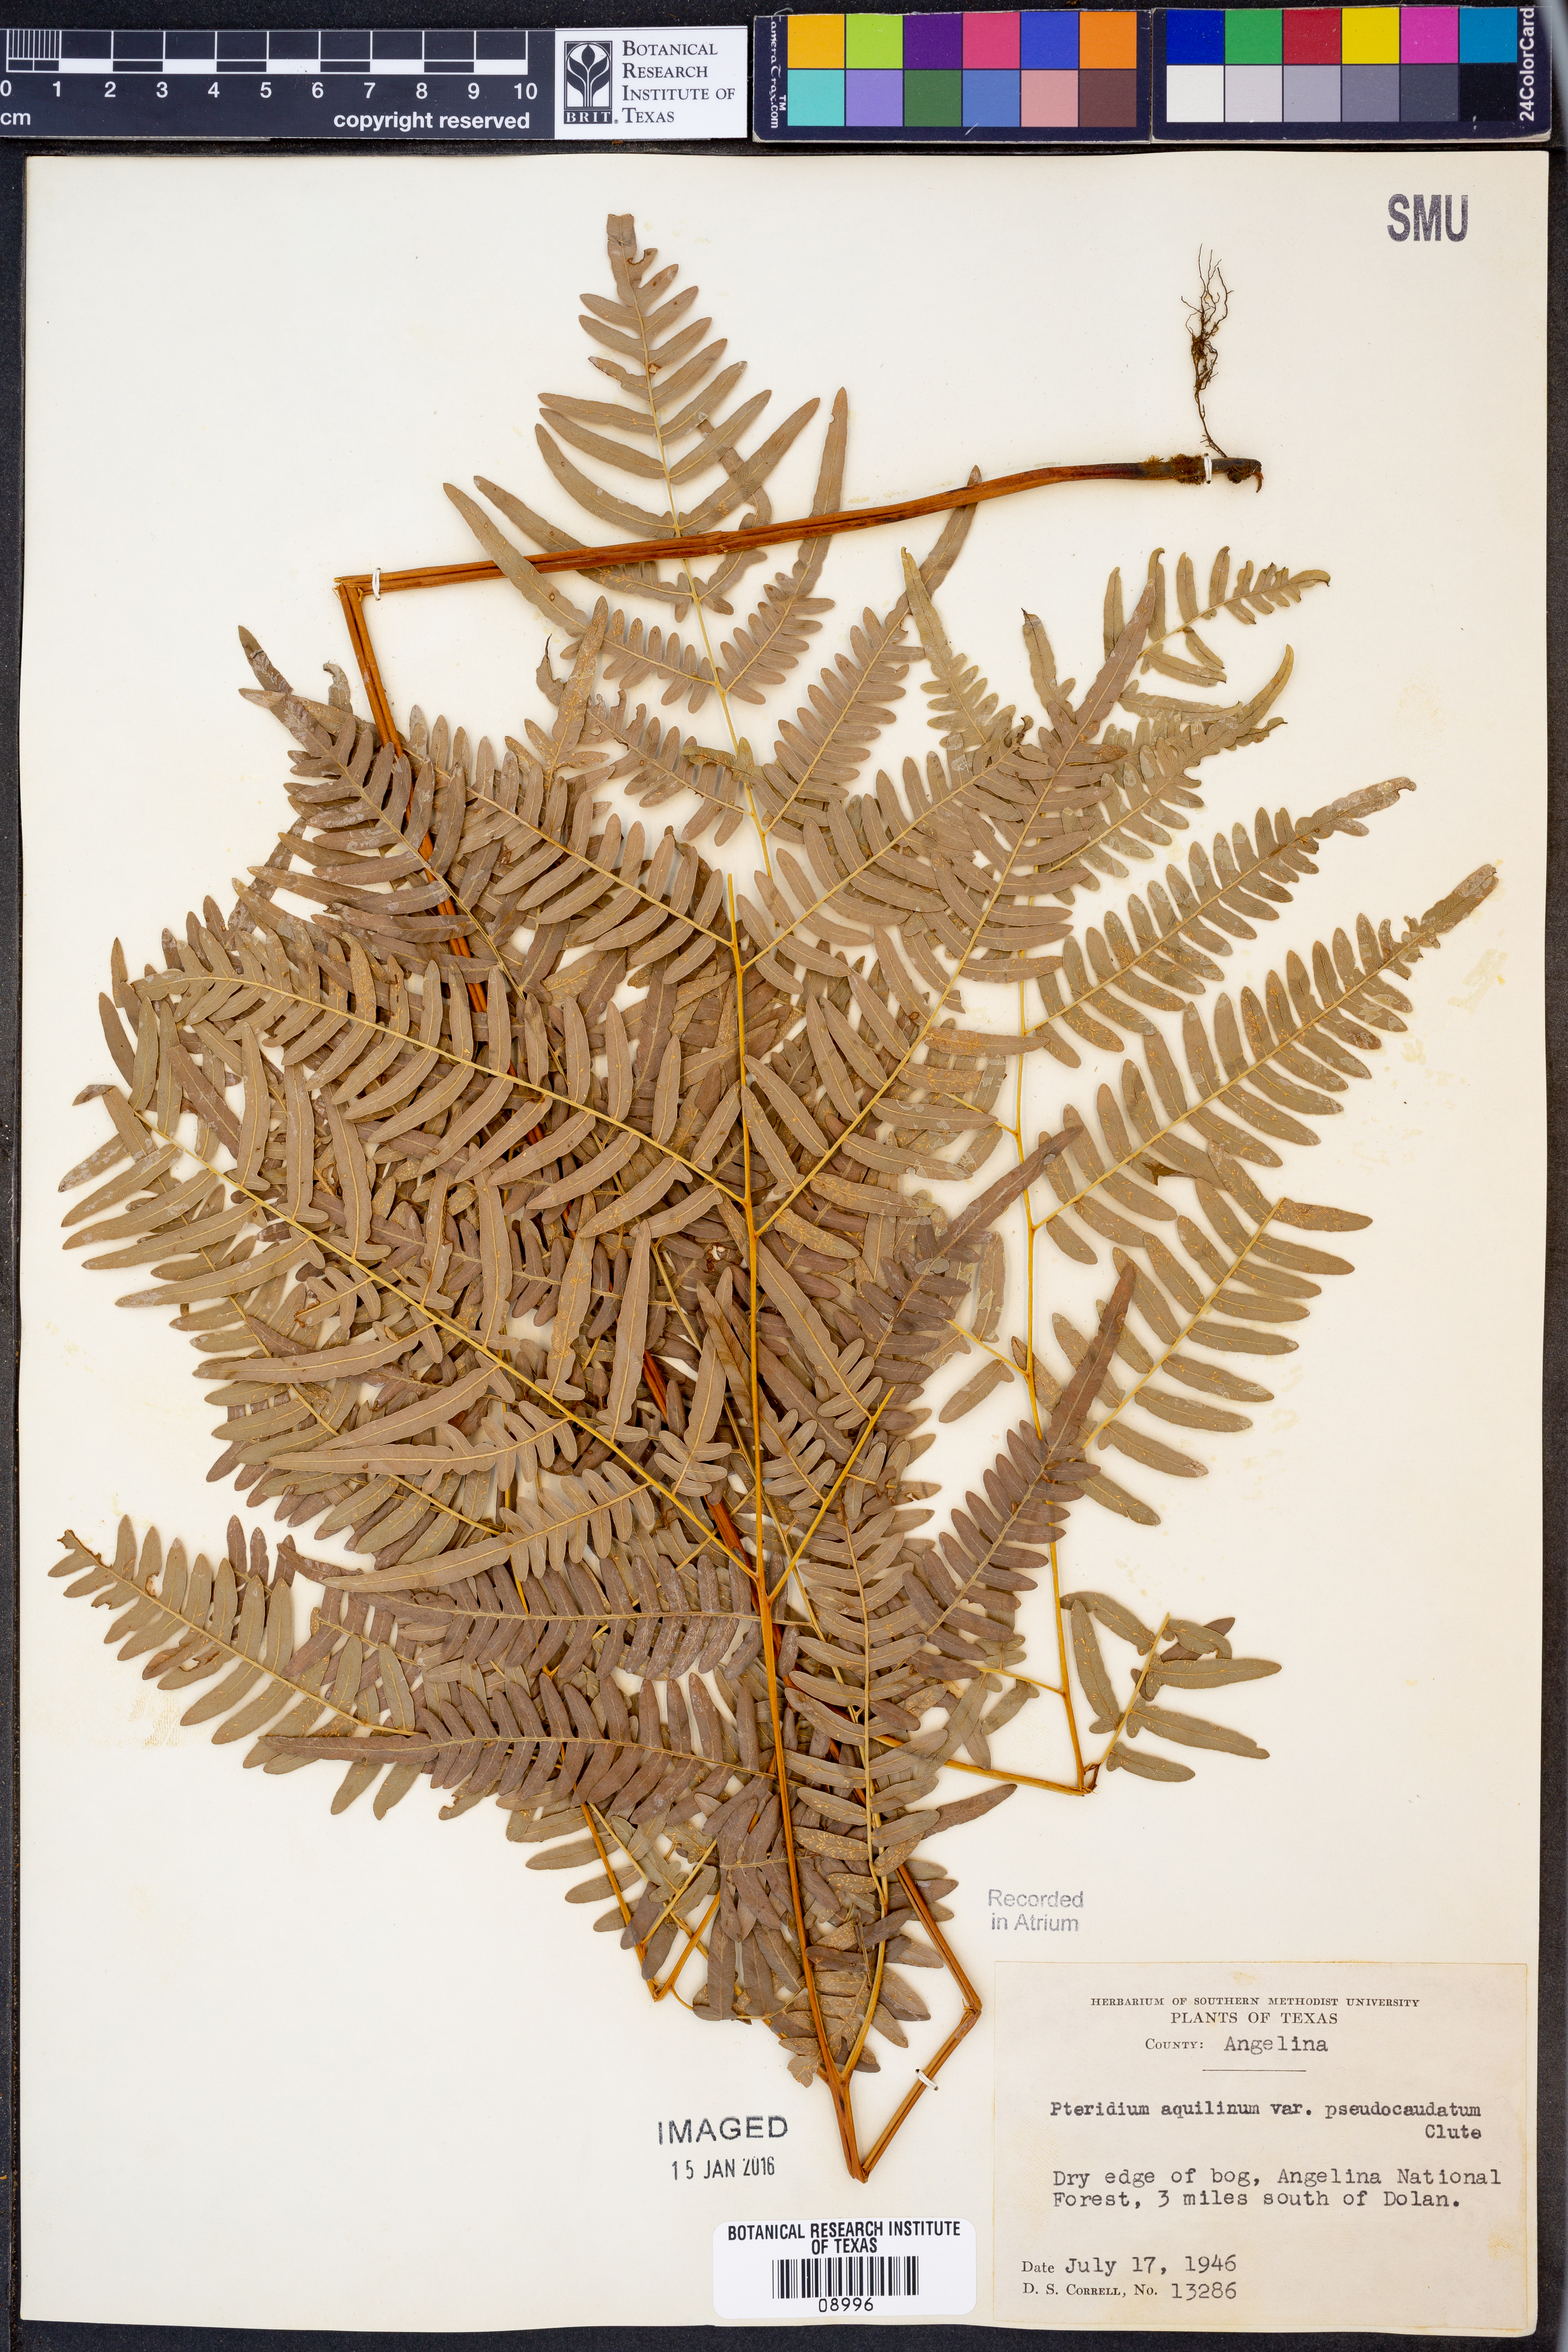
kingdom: Plantae
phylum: Tracheophyta
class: Polypodiopsida
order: Polypodiales
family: Dennstaedtiaceae
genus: Pteridium
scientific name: Pteridium aquilinum
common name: Bracken
